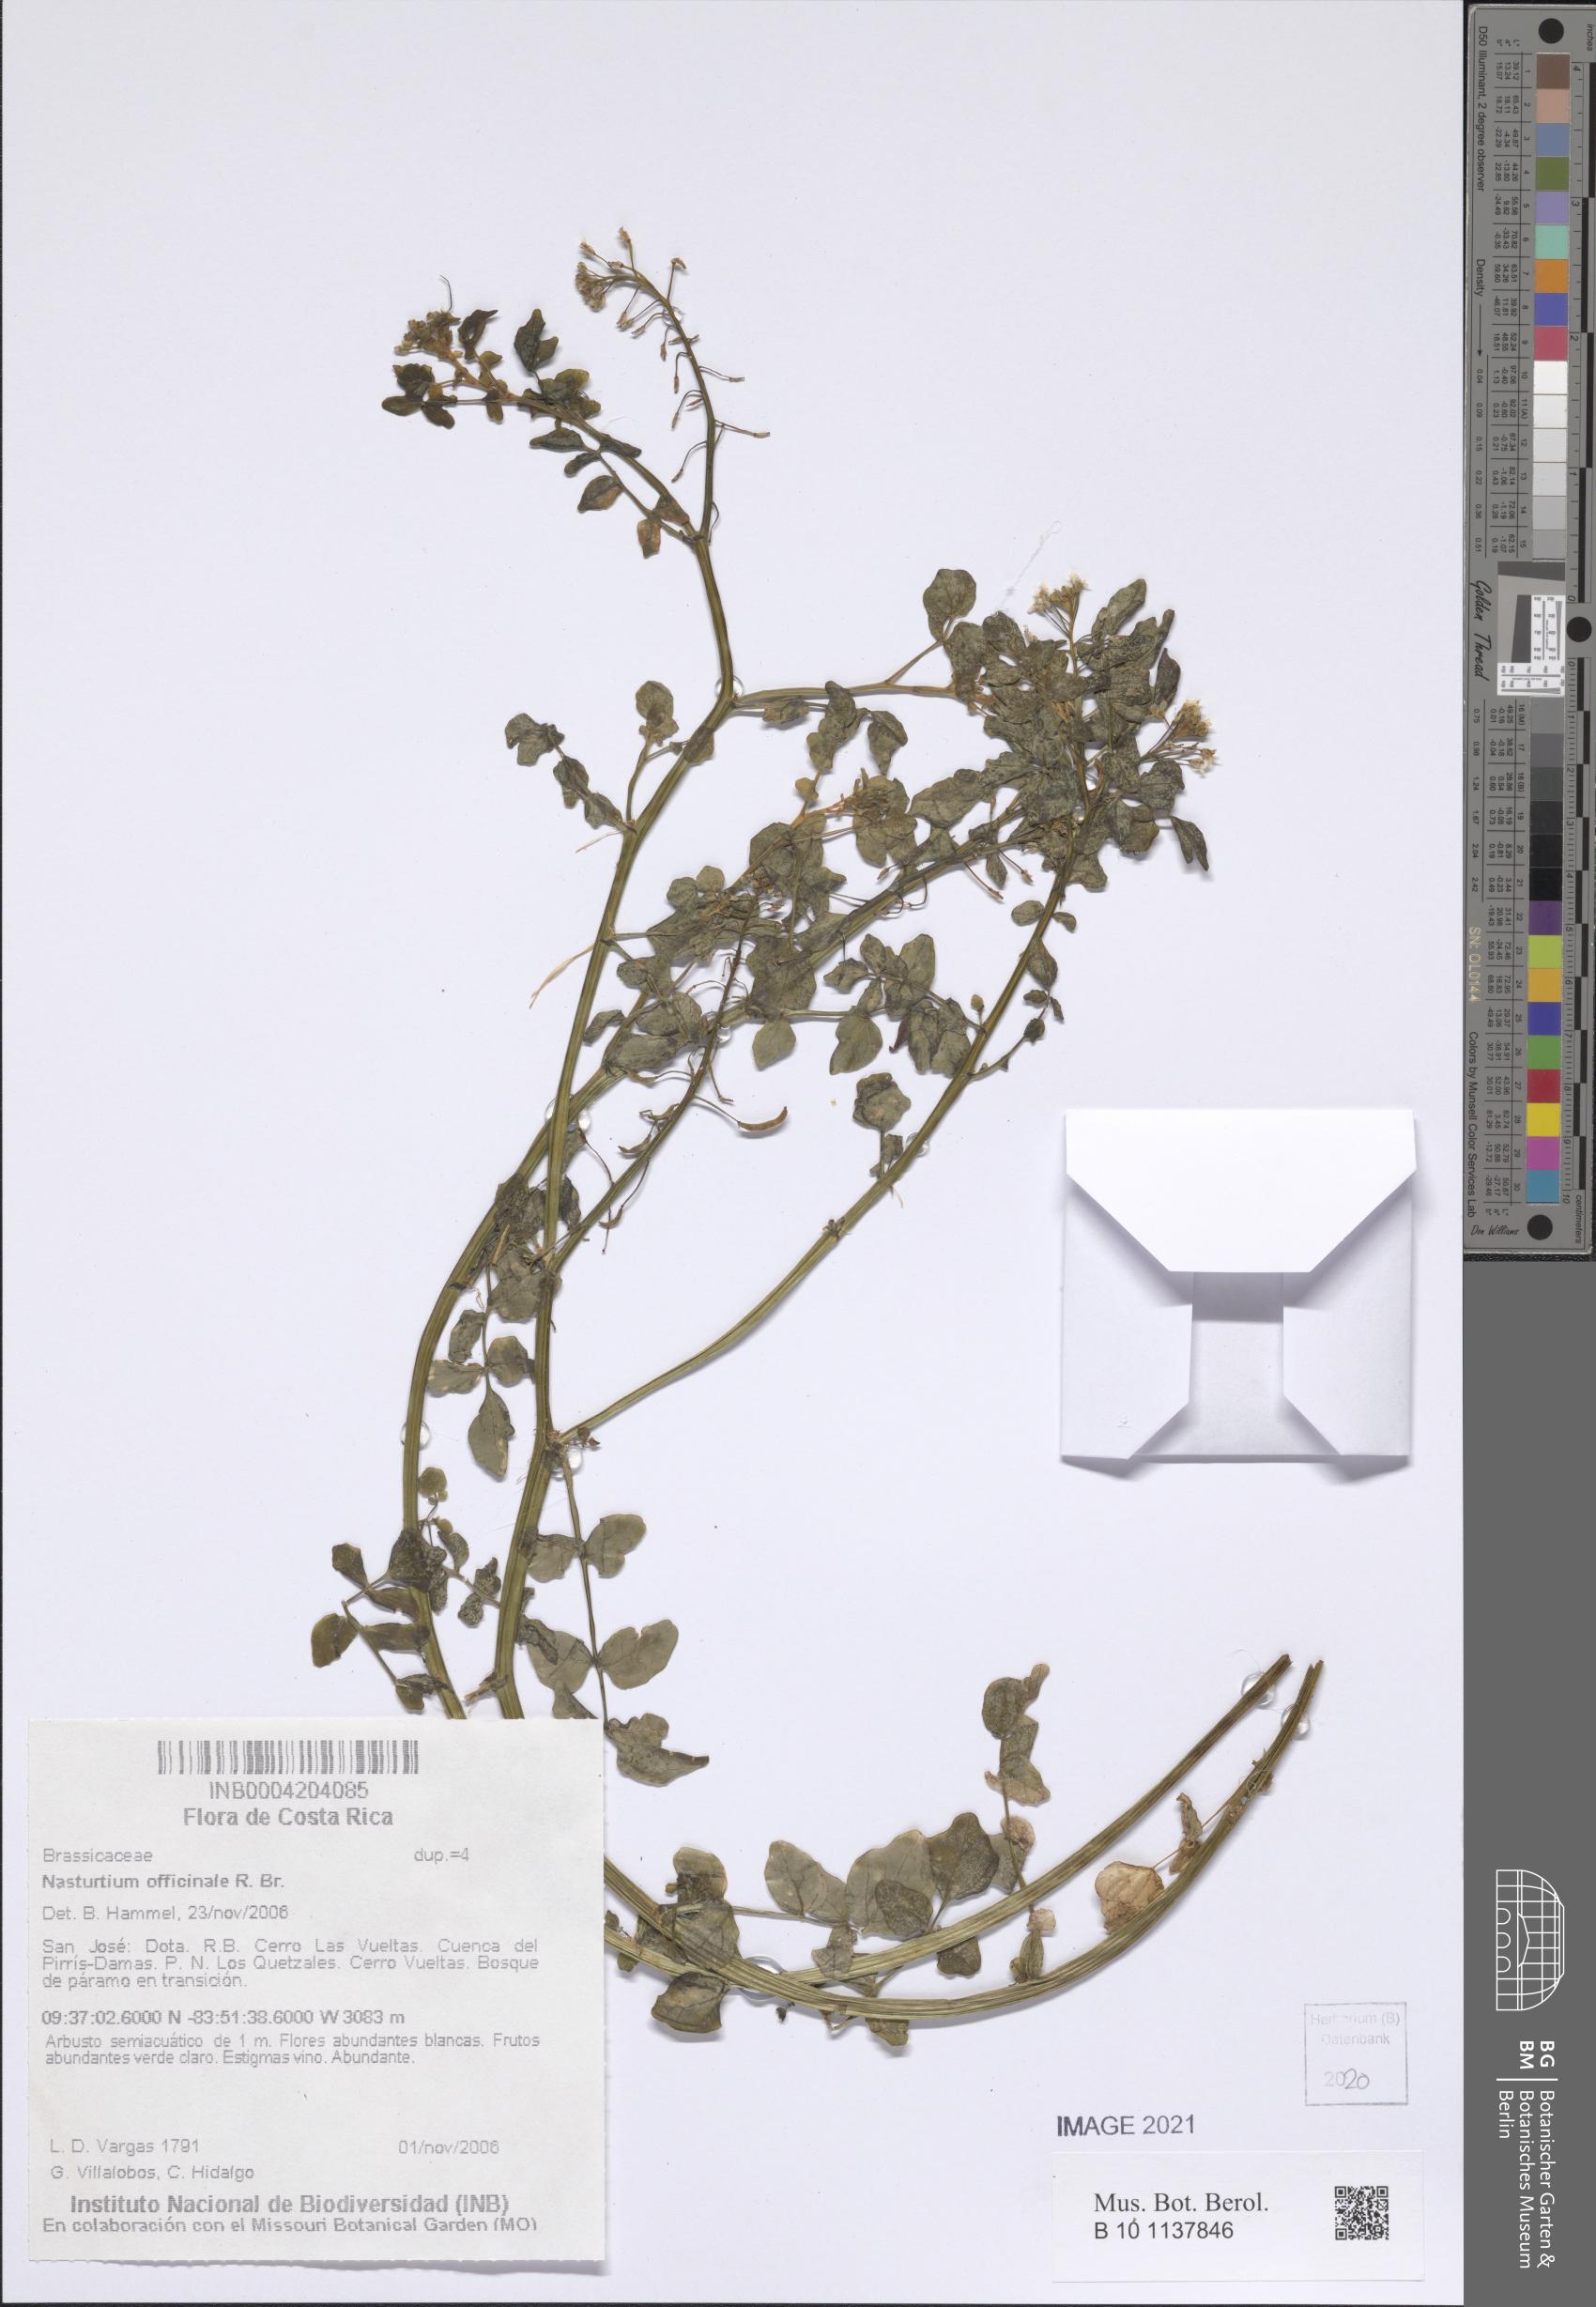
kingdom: Plantae
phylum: Tracheophyta
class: Magnoliopsida
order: Brassicales
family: Brassicaceae
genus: Nasturtium
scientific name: Nasturtium officinale
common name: Watercress
